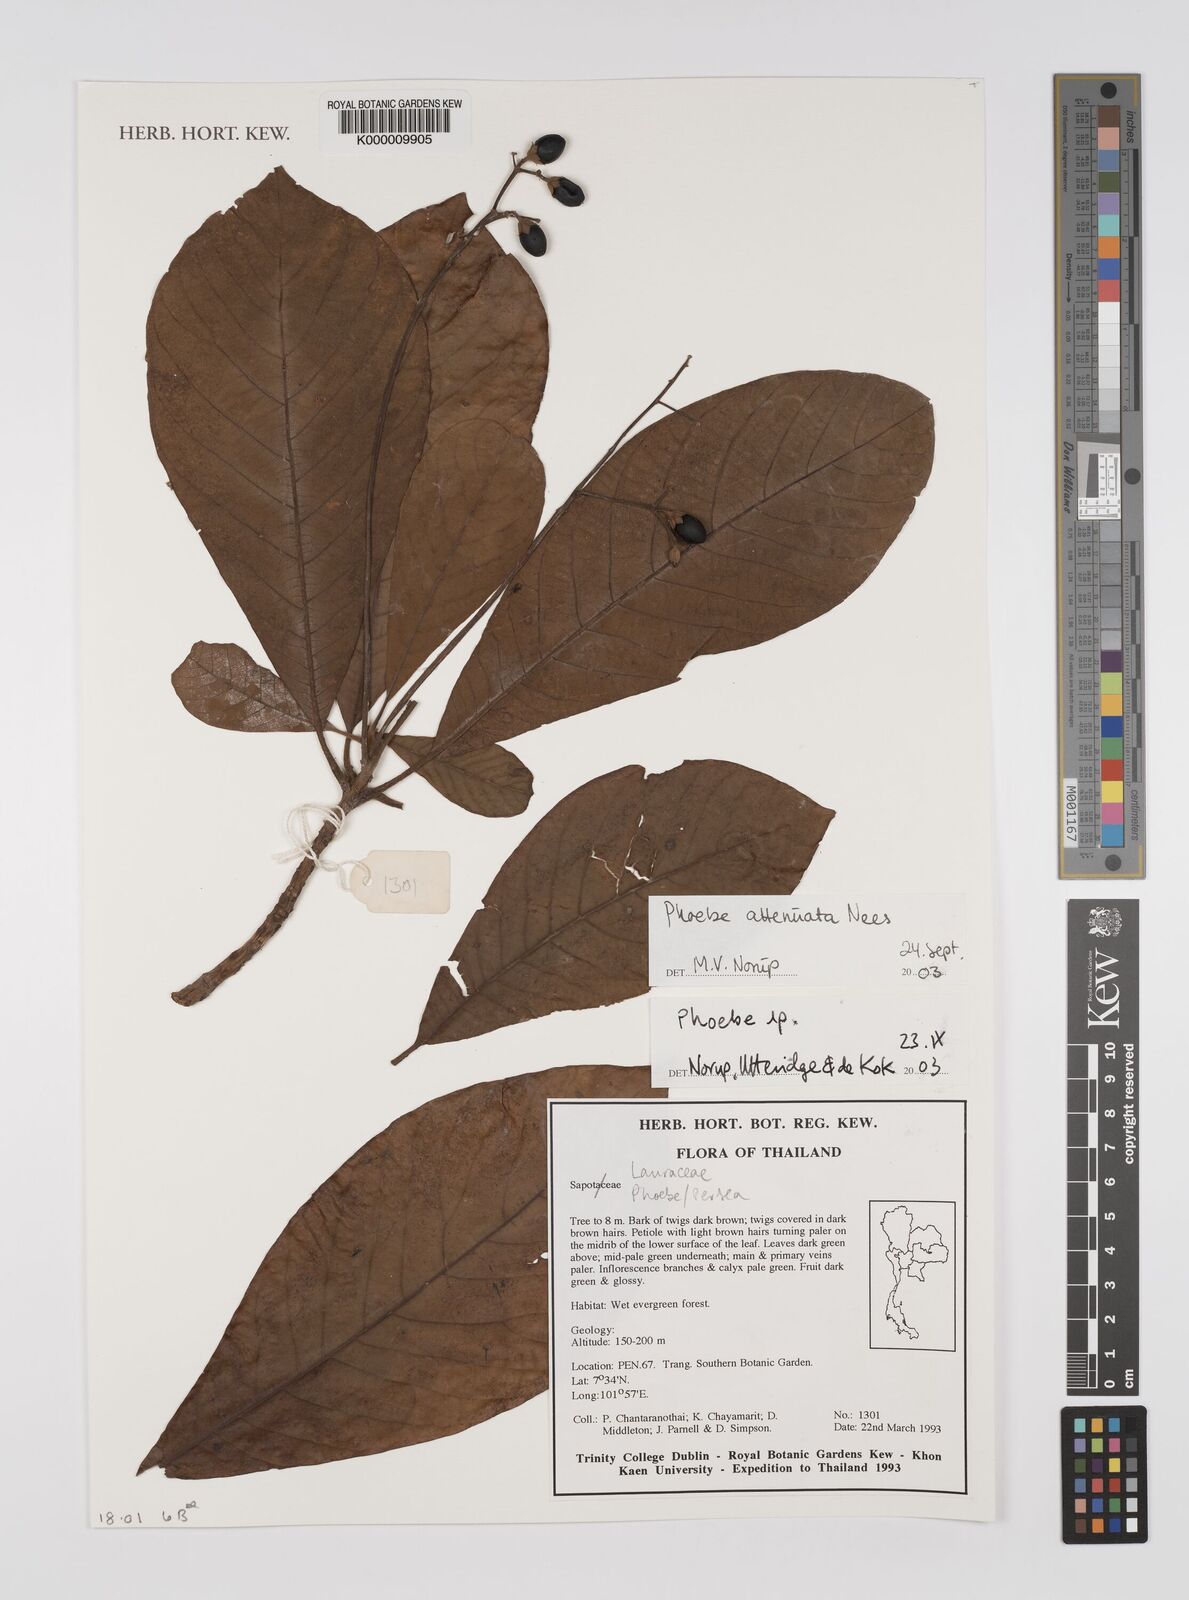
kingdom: Plantae
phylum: Tracheophyta
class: Magnoliopsida
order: Laurales
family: Lauraceae
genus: Phoebe
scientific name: Phoebe attenuata
